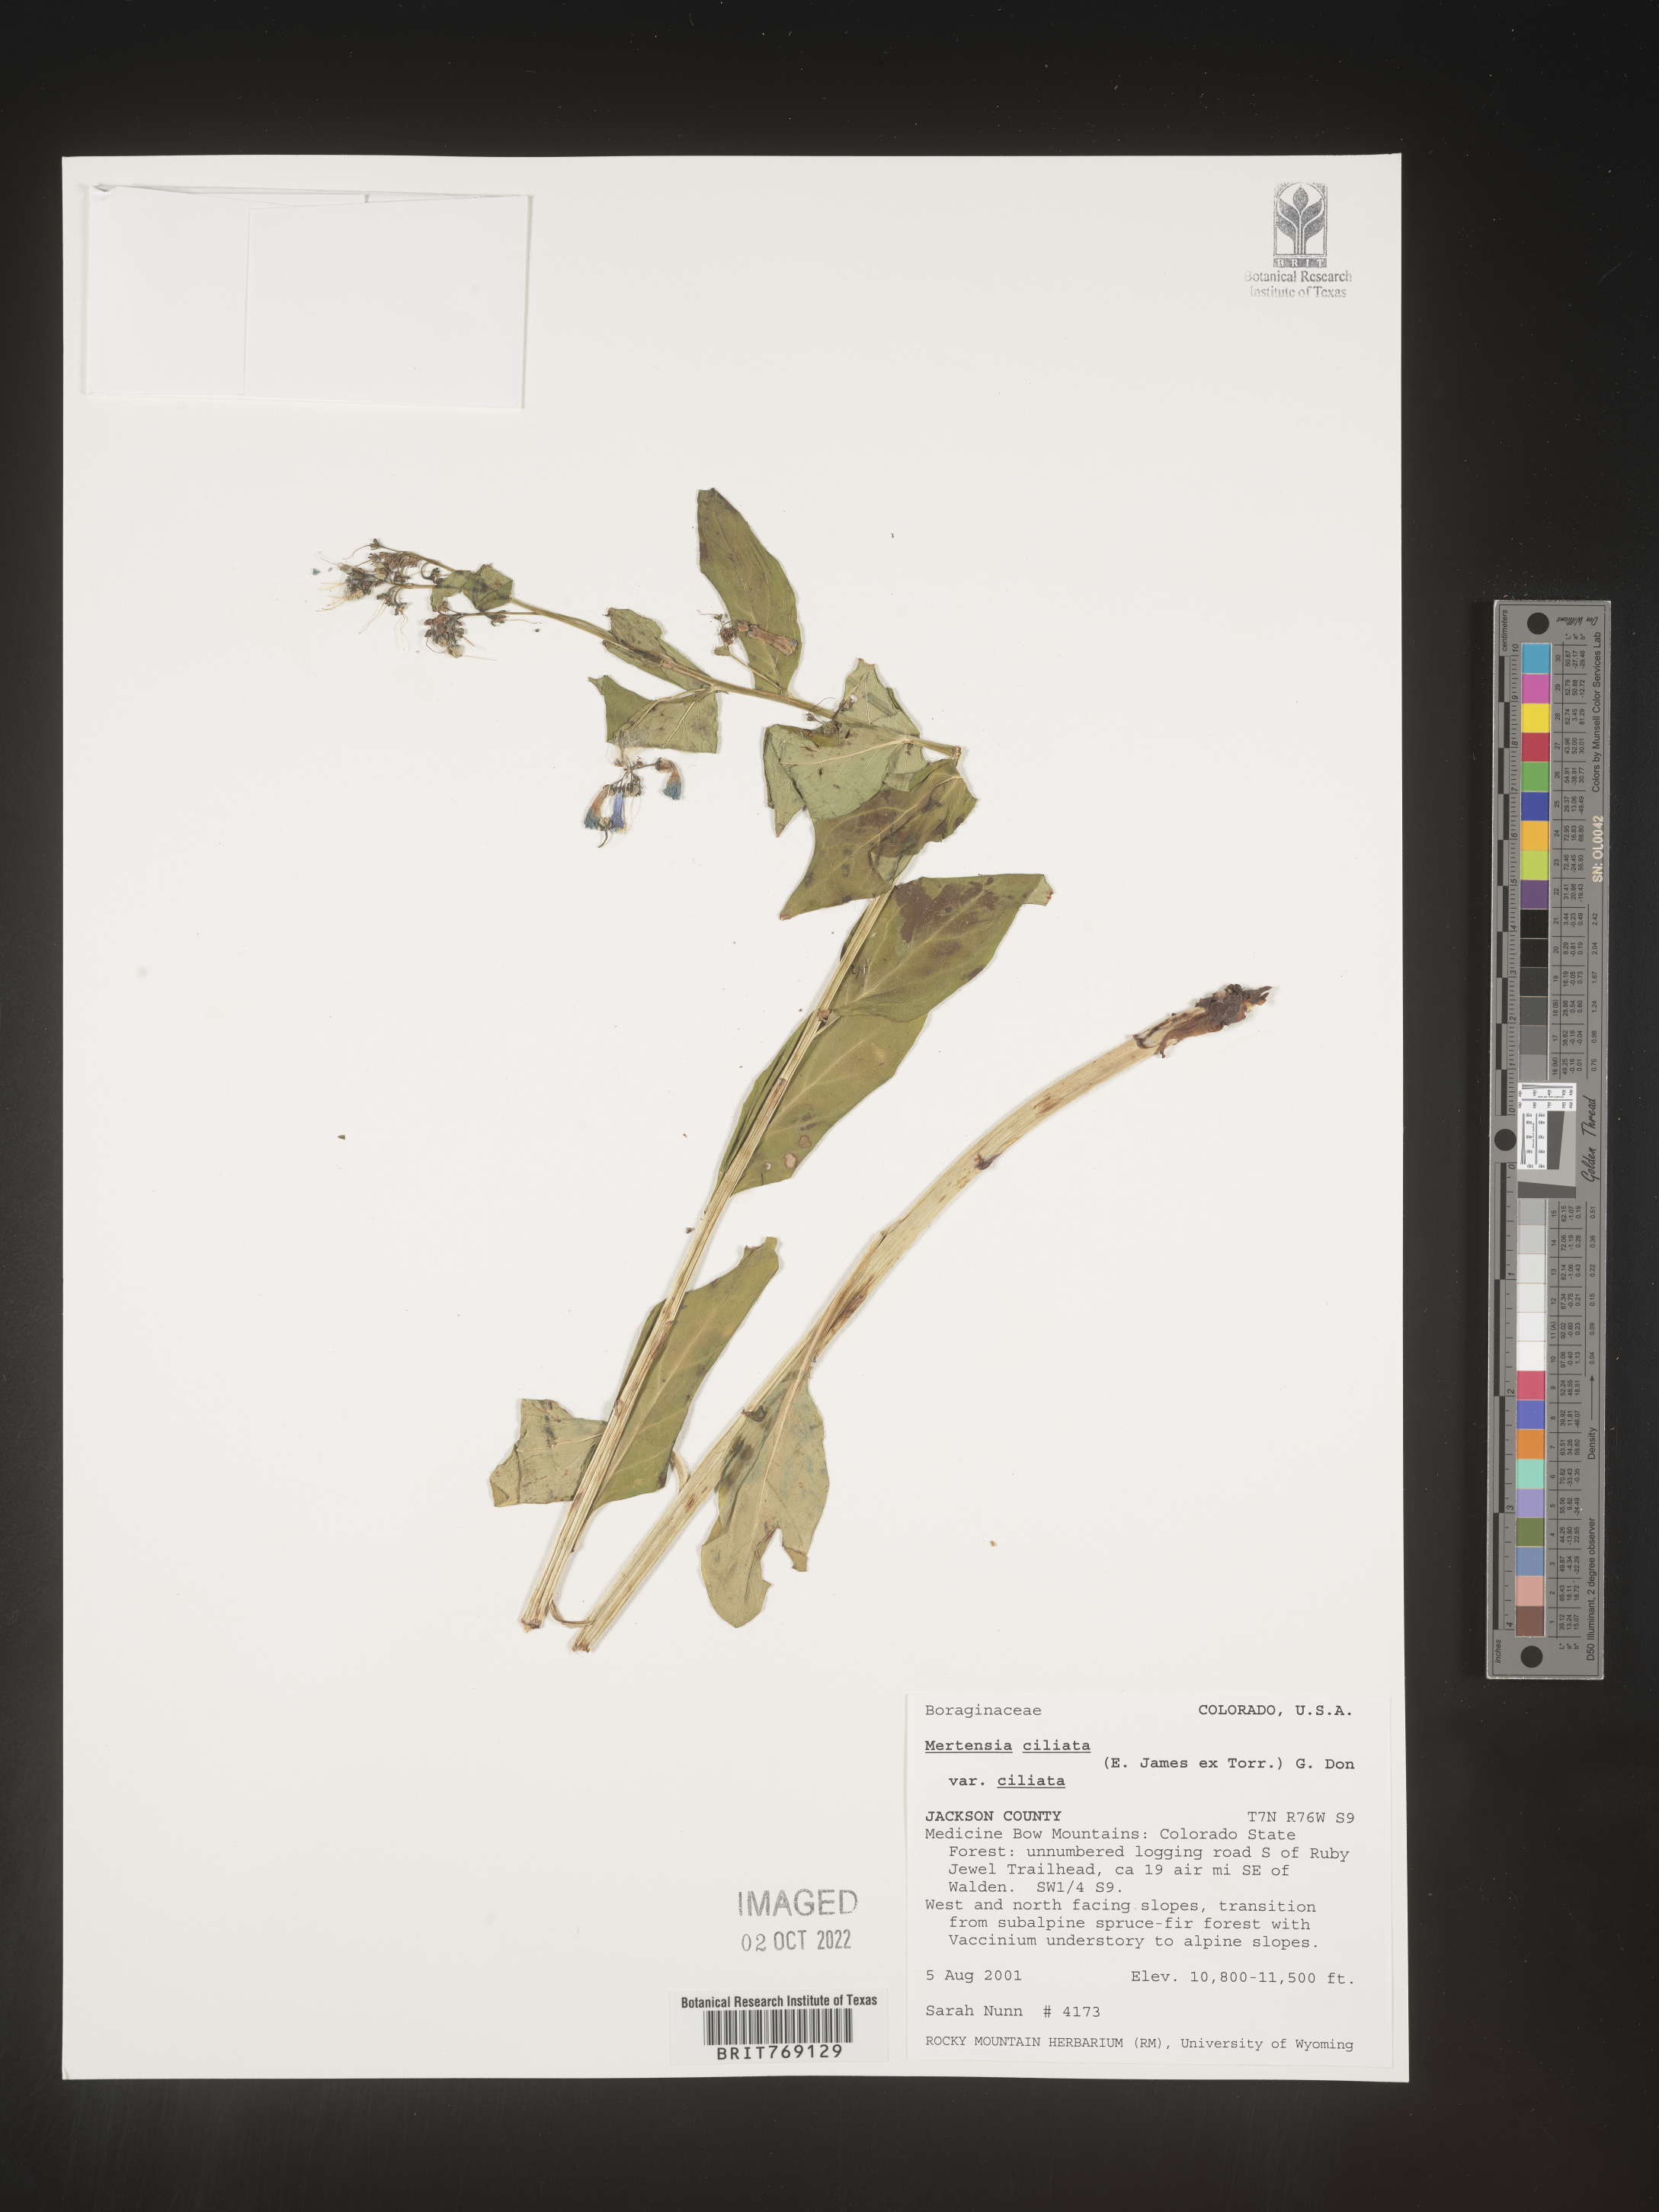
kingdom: Plantae
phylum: Tracheophyta
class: Magnoliopsida
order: Boraginales
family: Boraginaceae
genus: Mertensia
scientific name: Mertensia
